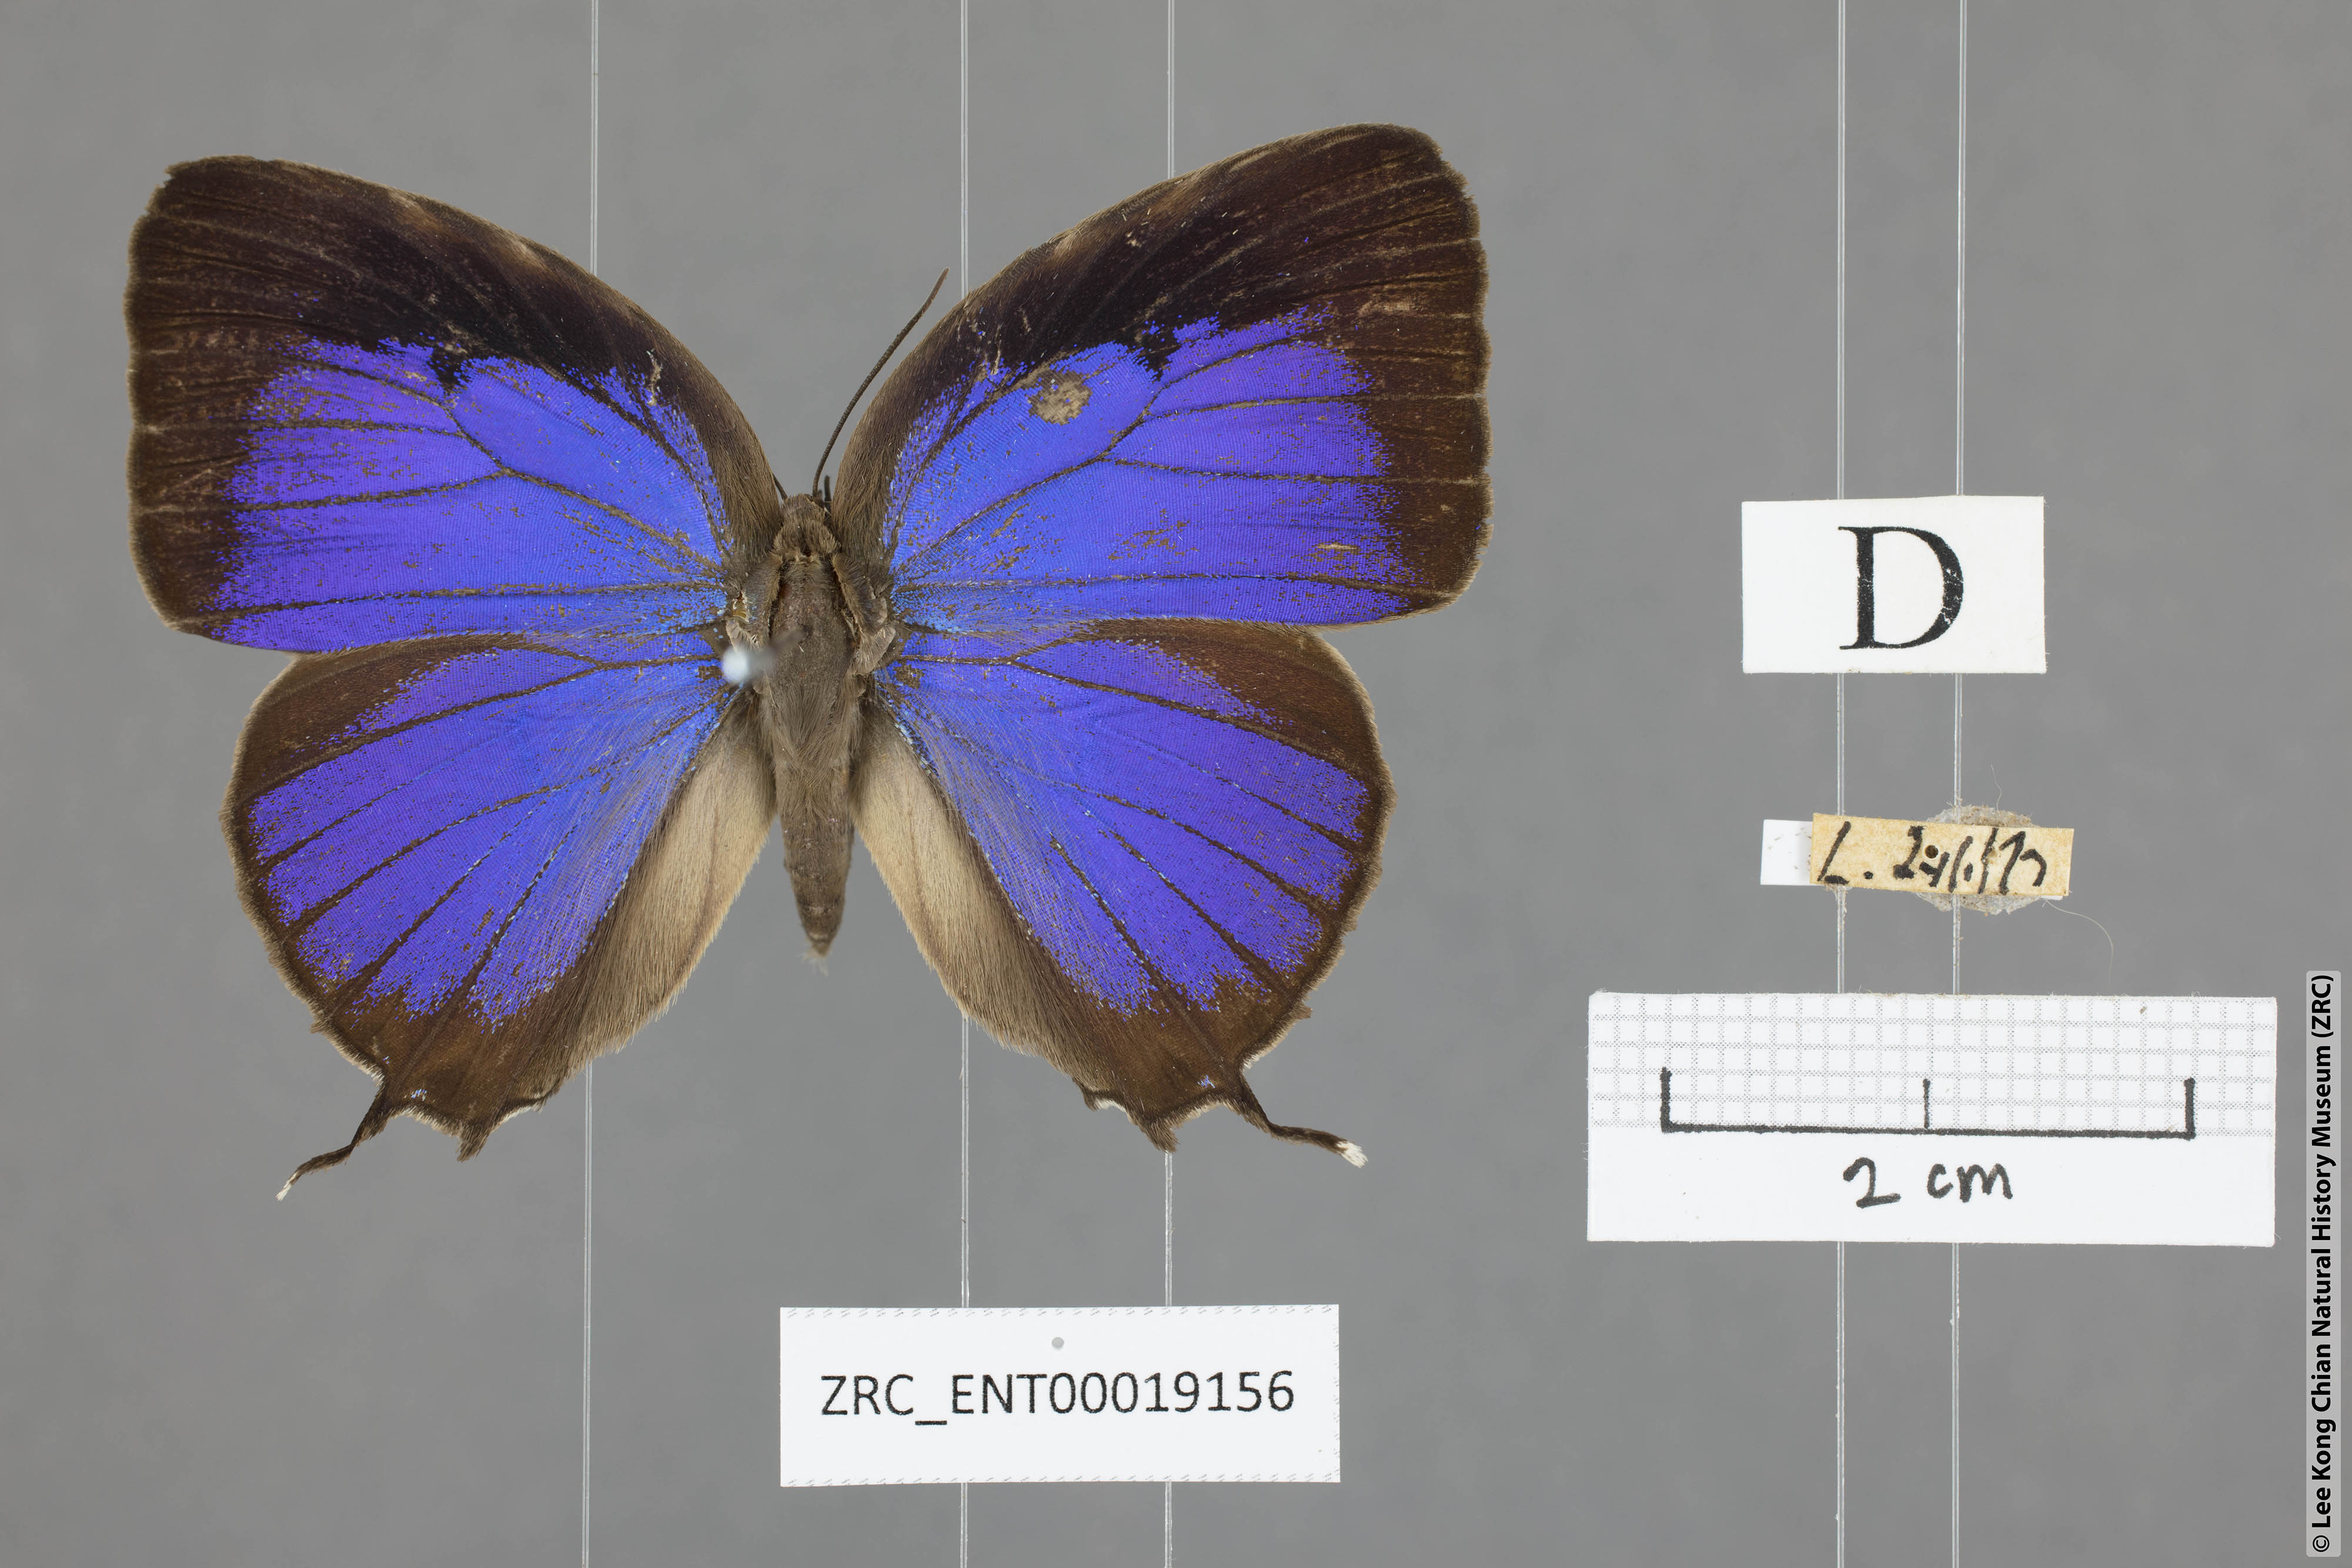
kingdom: Animalia
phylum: Arthropoda
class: Insecta
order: Lepidoptera
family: Lycaenidae
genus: Arhopala
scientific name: Arhopala anthelus
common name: Bushblue
